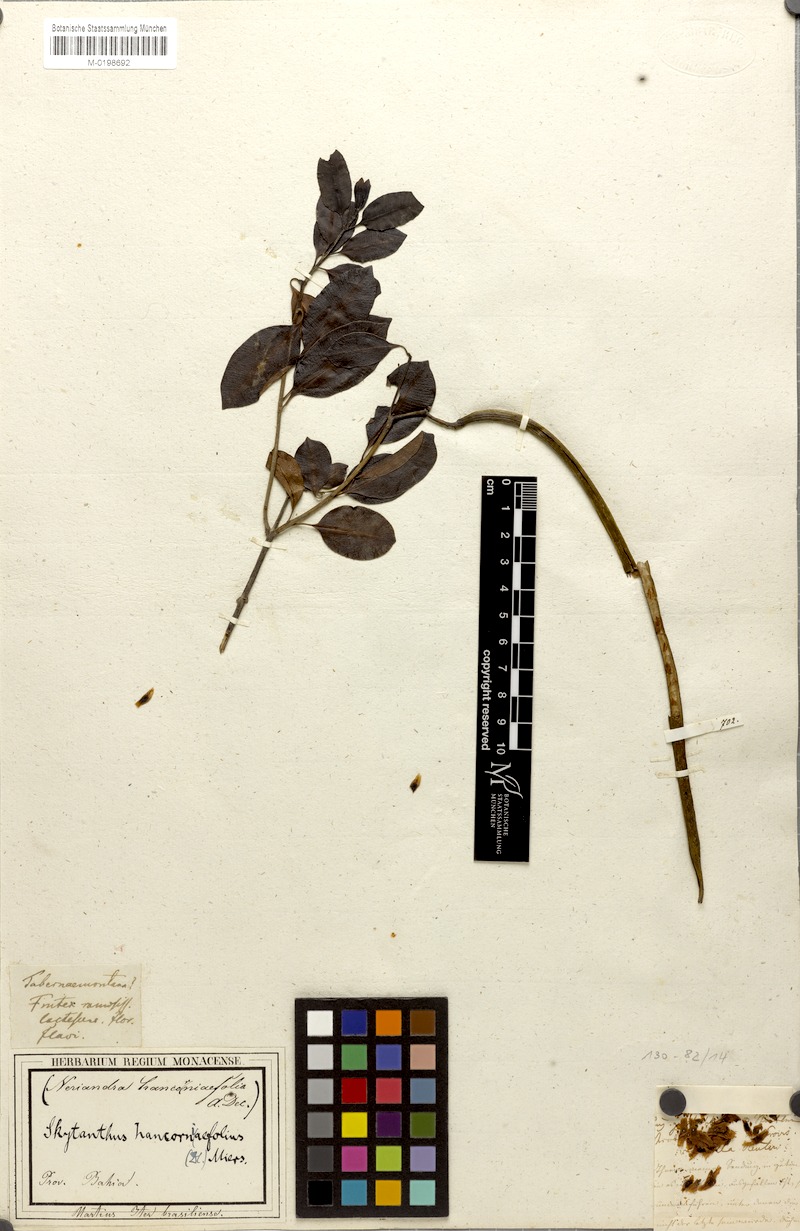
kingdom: Plantae
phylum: Tracheophyta
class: Magnoliopsida
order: Gentianales
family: Apocynaceae
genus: Skytanthus
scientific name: Skytanthus martianus
